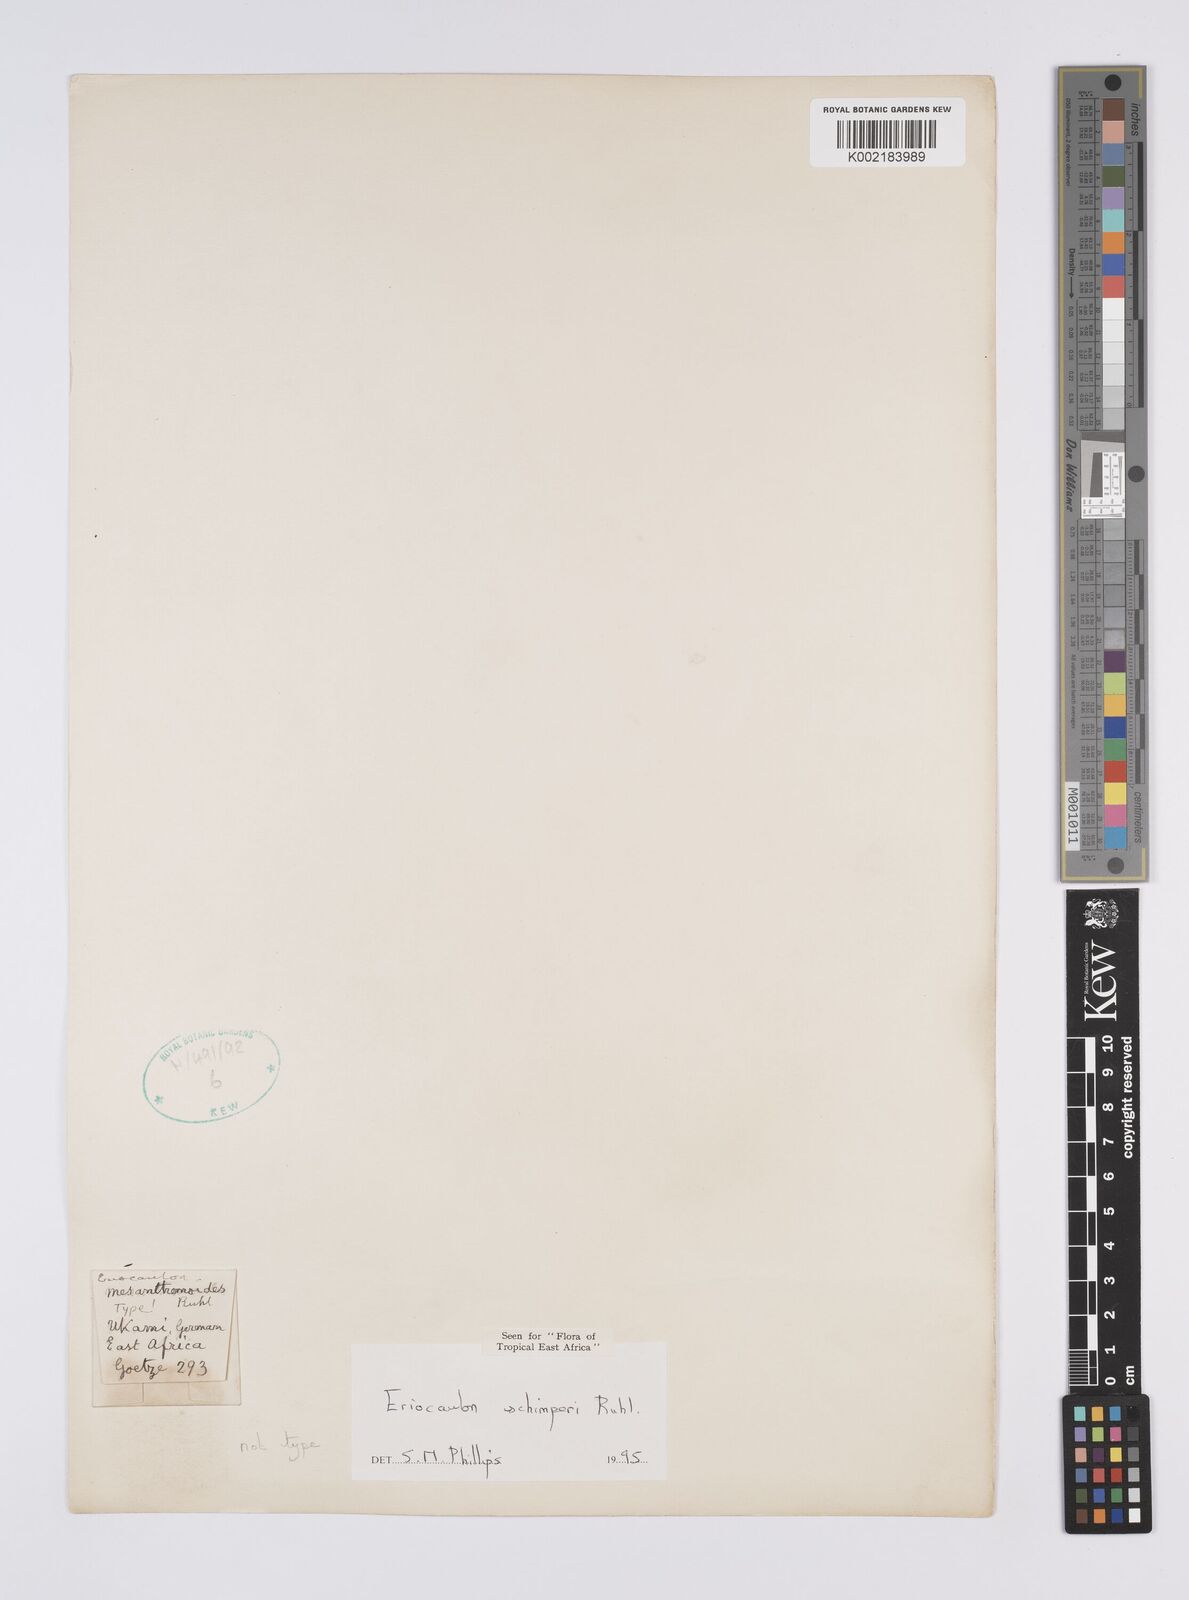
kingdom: Plantae
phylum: Tracheophyta
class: Liliopsida
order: Poales
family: Eriocaulaceae
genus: Eriocaulon
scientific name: Eriocaulon schimperi
